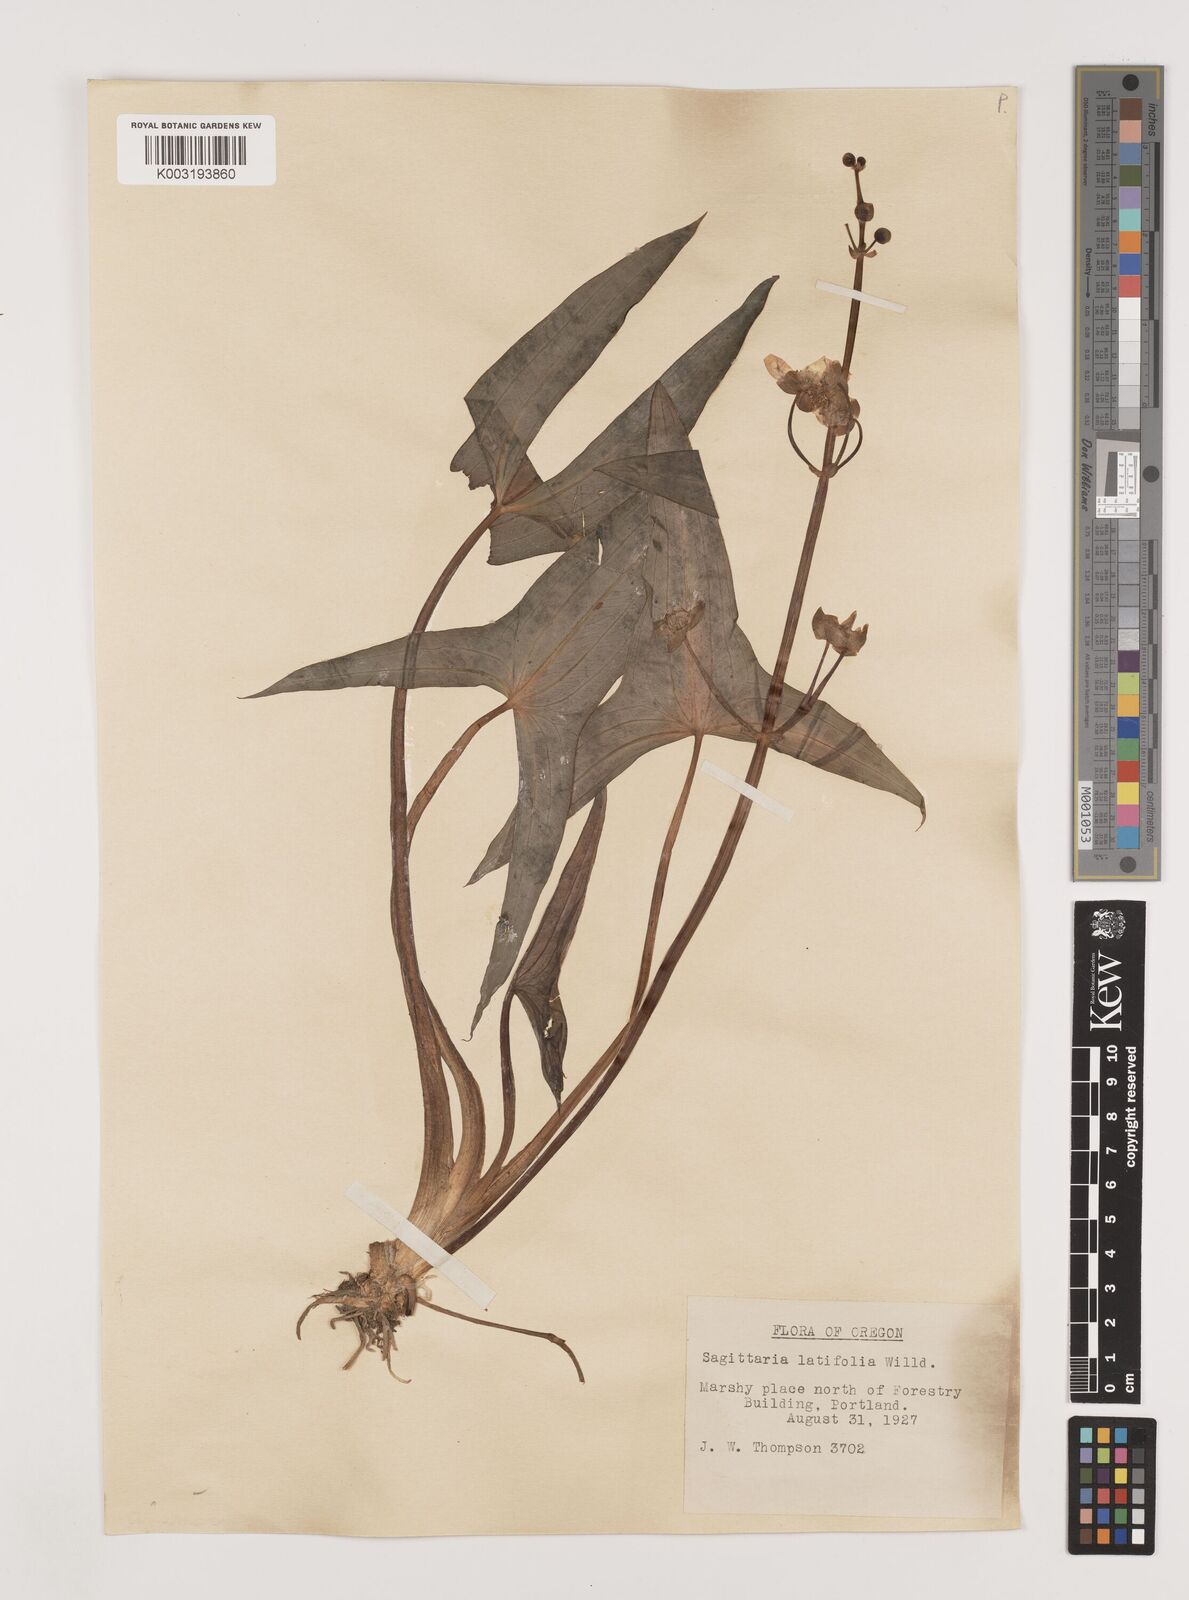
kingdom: Plantae
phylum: Tracheophyta
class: Liliopsida
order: Alismatales
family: Alismataceae
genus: Sagittaria
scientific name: Sagittaria latifolia
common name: Duck-potato
